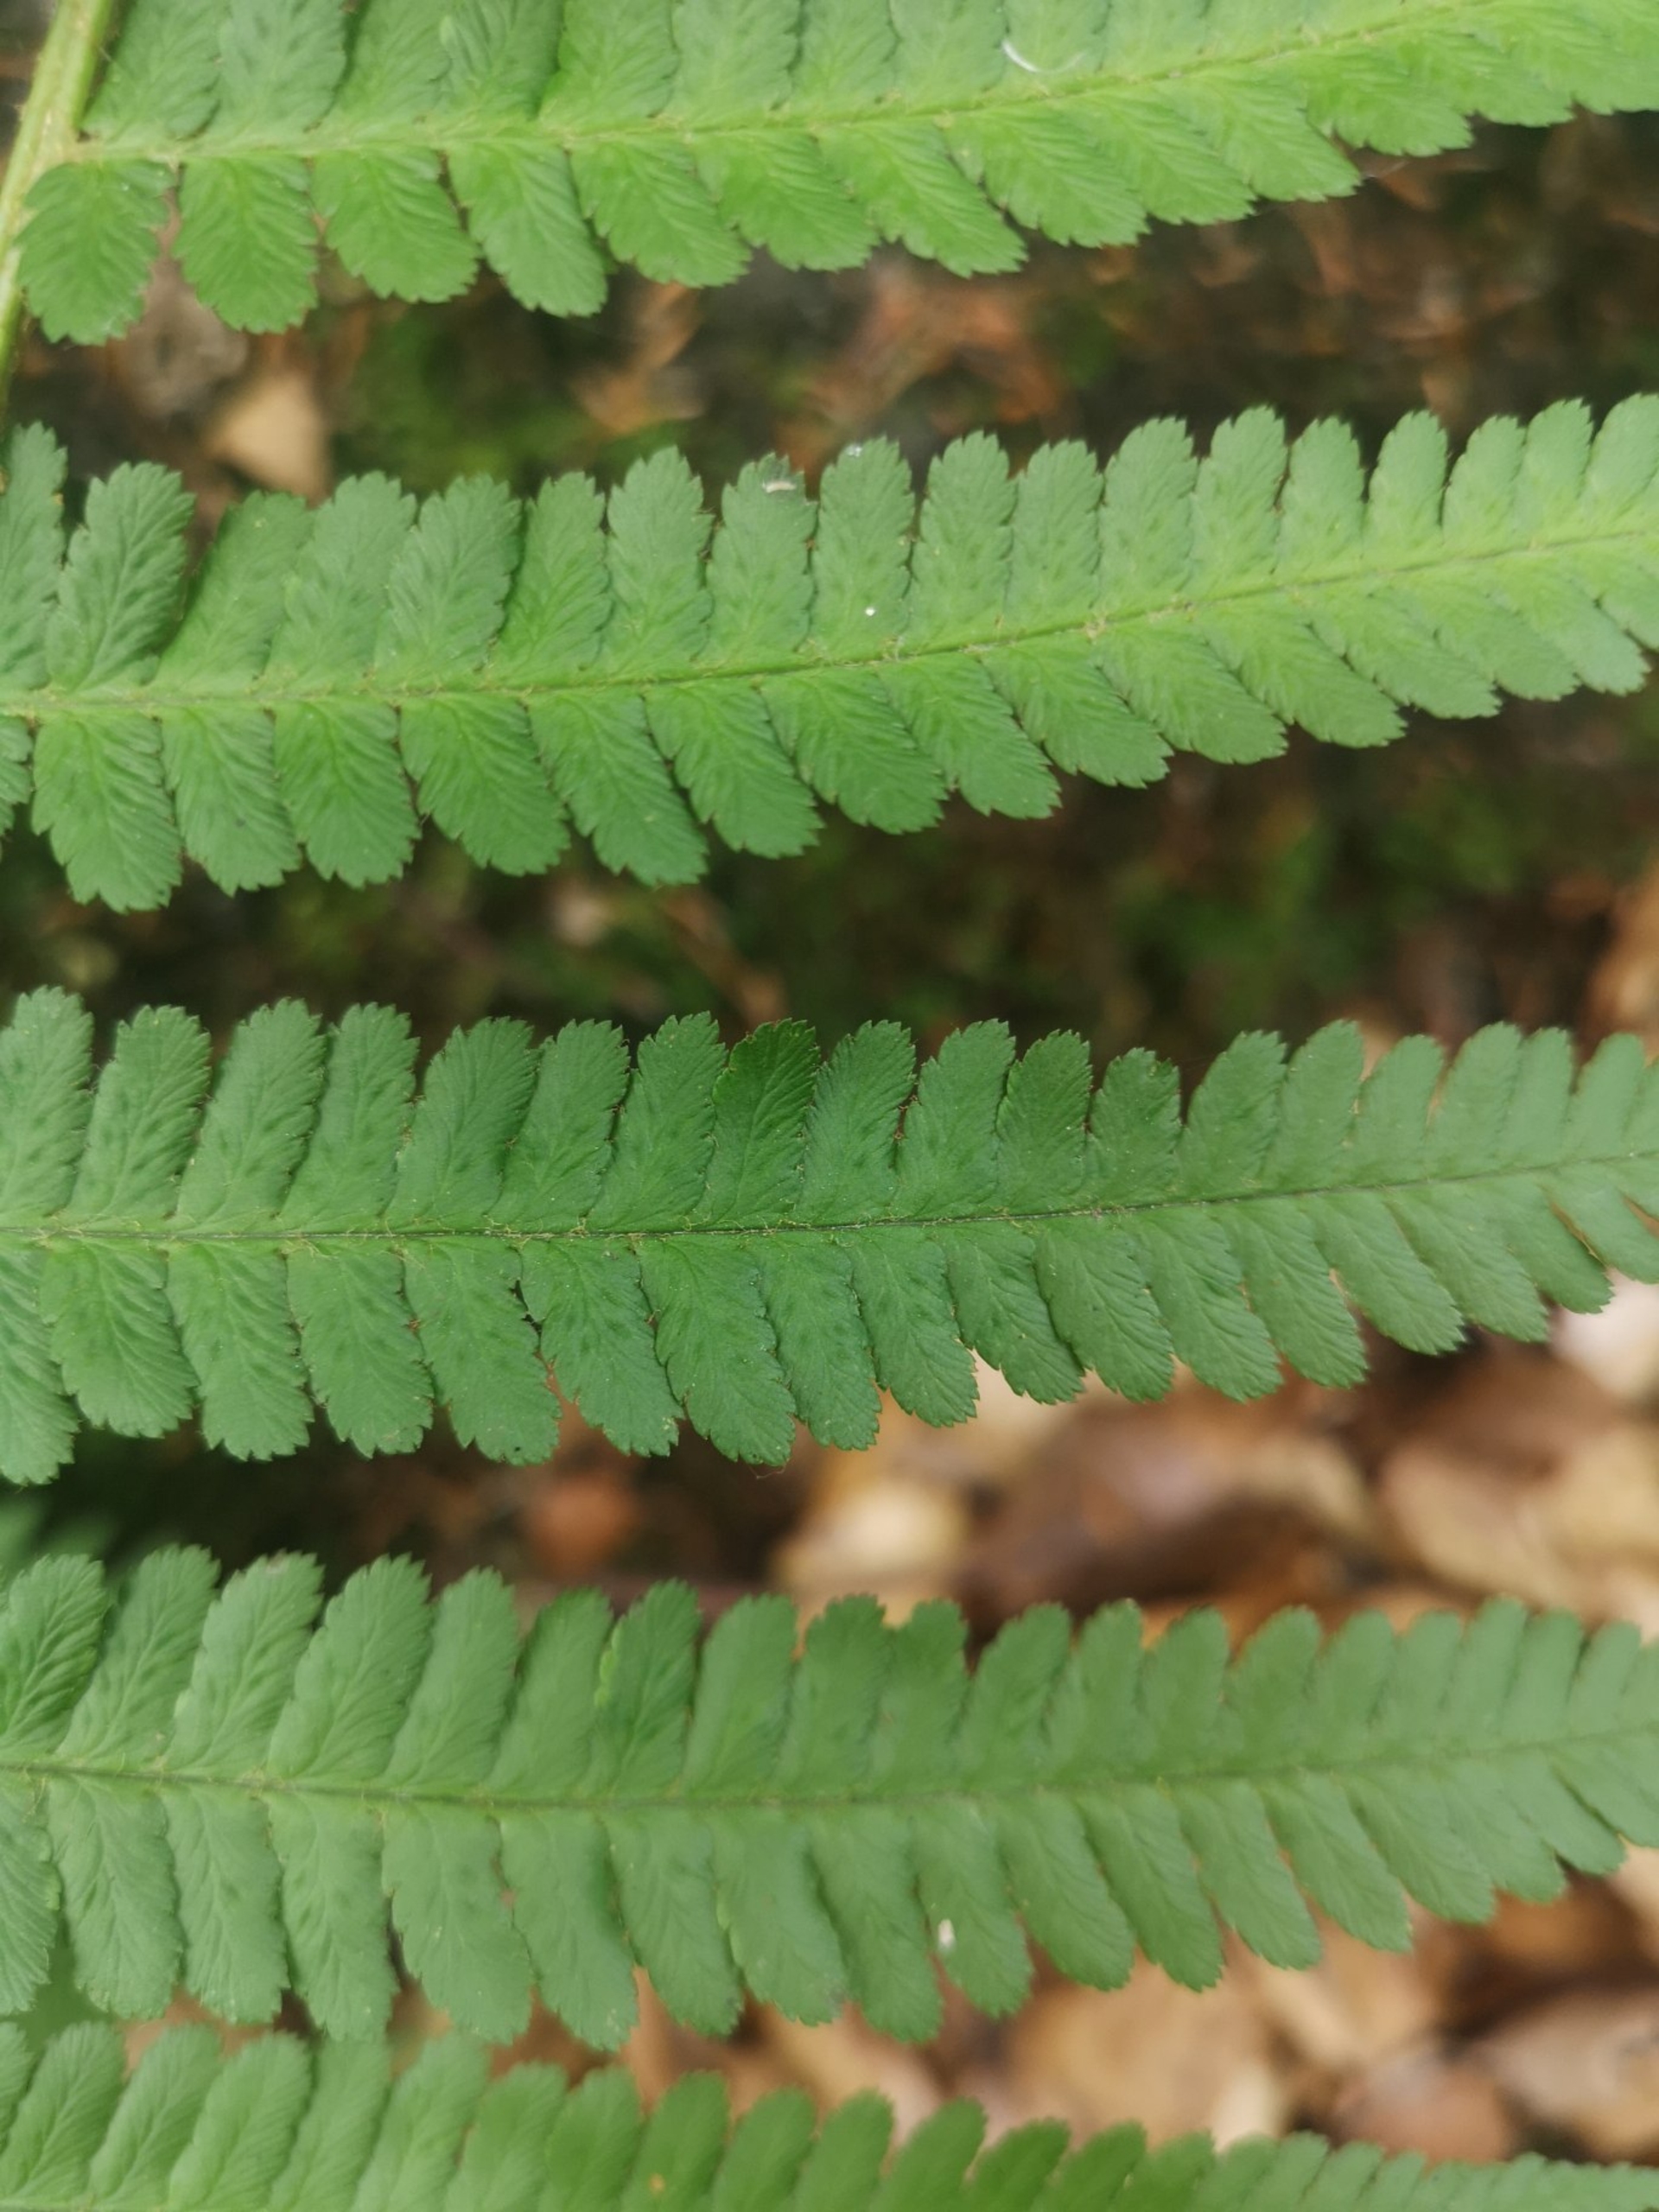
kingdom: Plantae
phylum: Tracheophyta
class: Polypodiopsida
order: Polypodiales
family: Dryopteridaceae
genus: Dryopteris
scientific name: Dryopteris filix-mas
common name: Almindelig mangeløv
